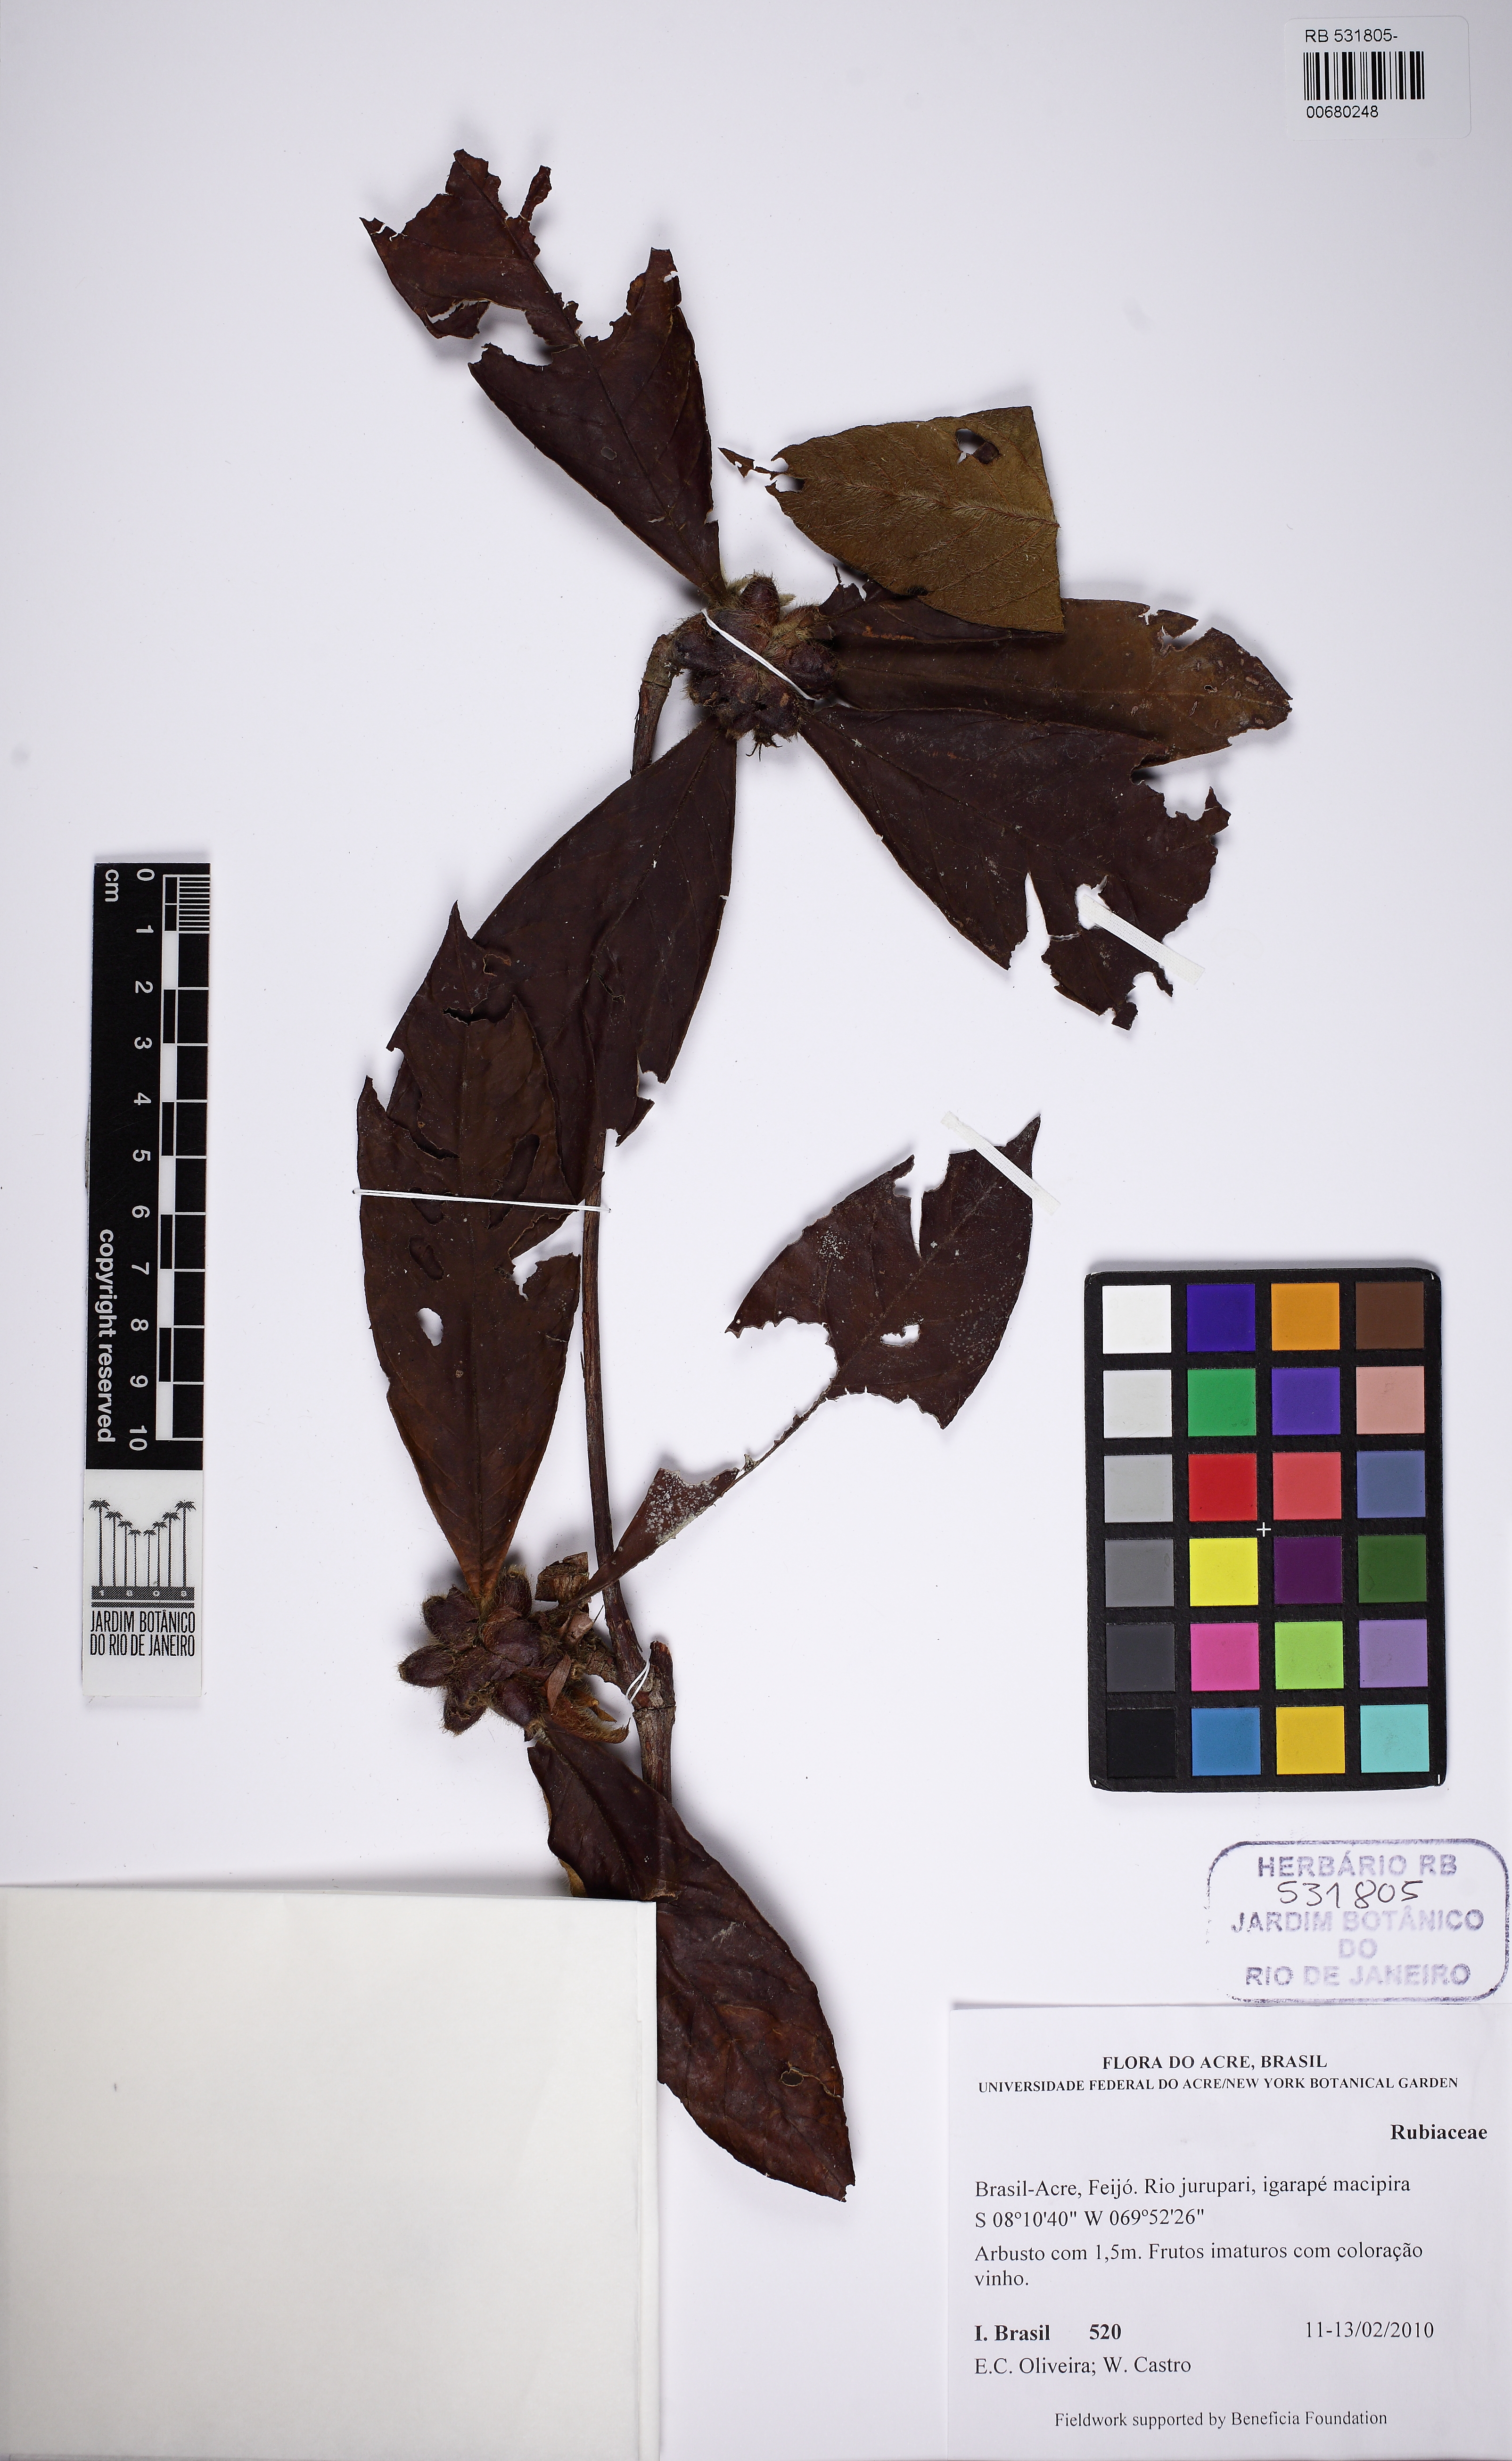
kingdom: Plantae
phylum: Tracheophyta
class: Magnoliopsida
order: Gentianales
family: Rubiaceae
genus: Amaioua
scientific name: Amaioua glomerulata
